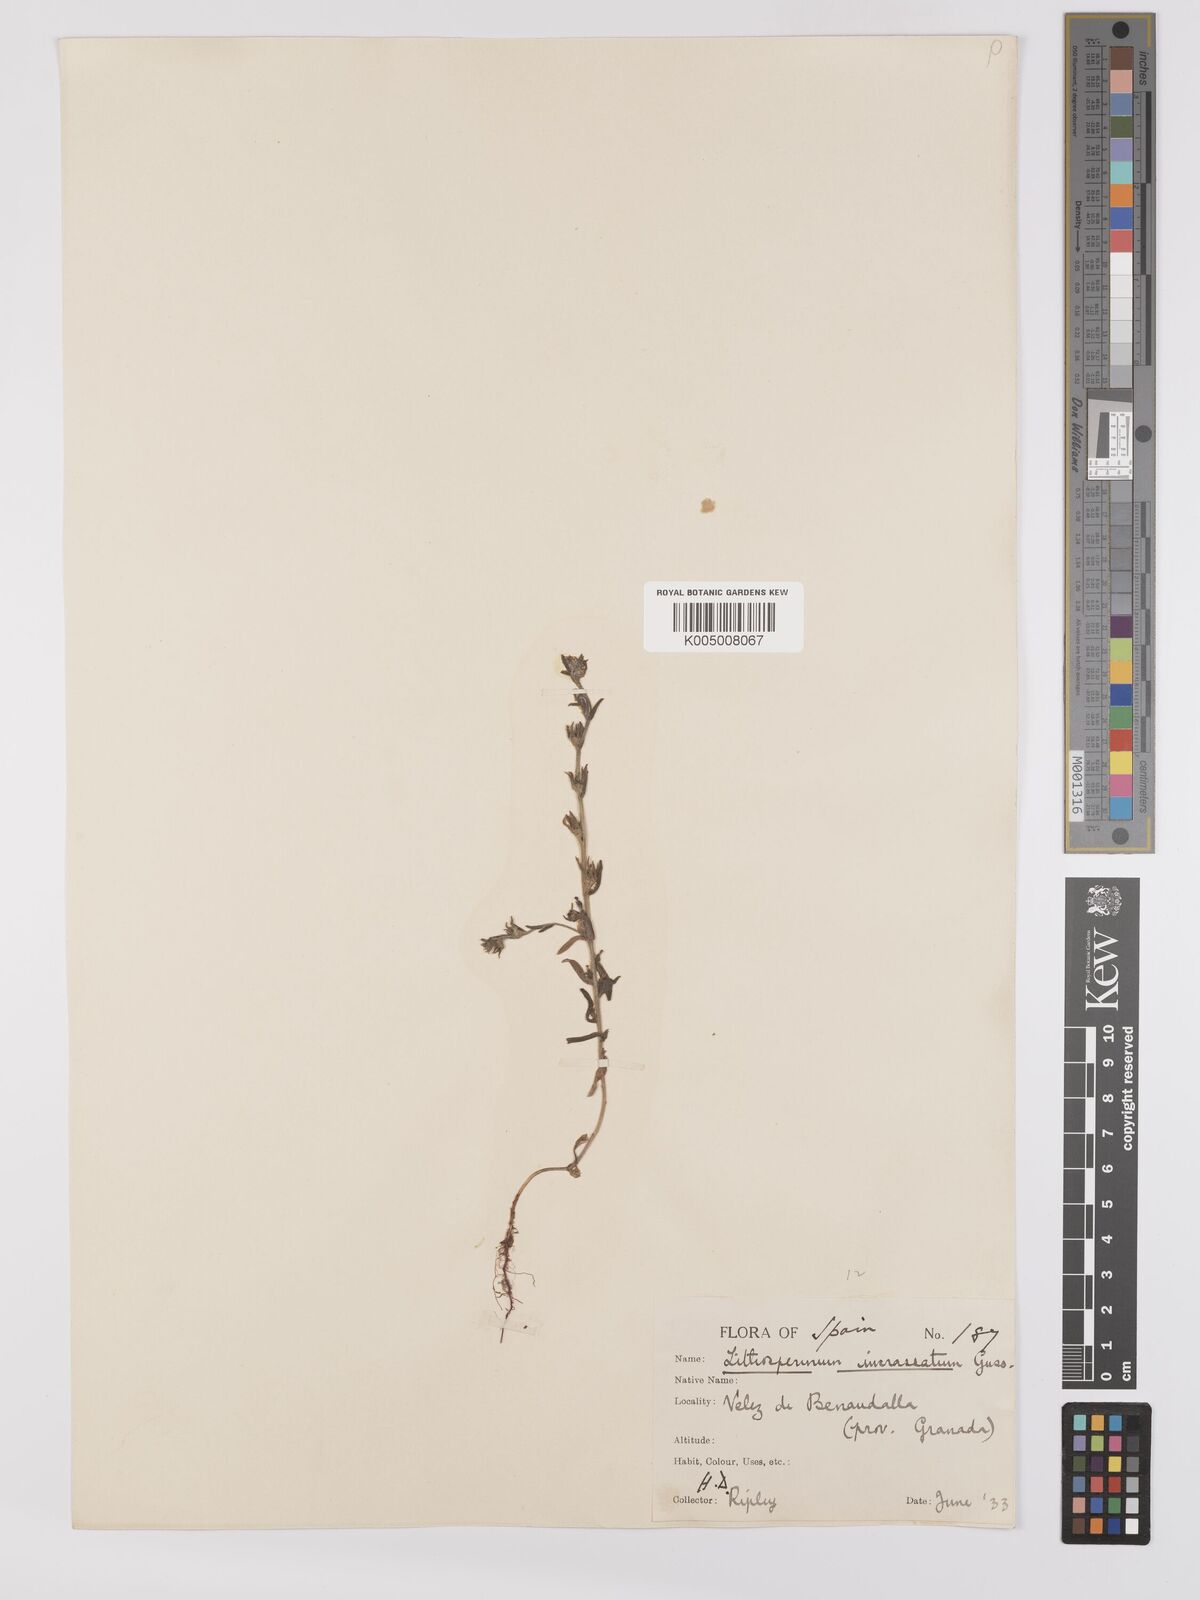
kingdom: Plantae
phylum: Tracheophyta
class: Magnoliopsida
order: Boraginales
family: Boraginaceae
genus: Buglossoides
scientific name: Buglossoides incrassata
